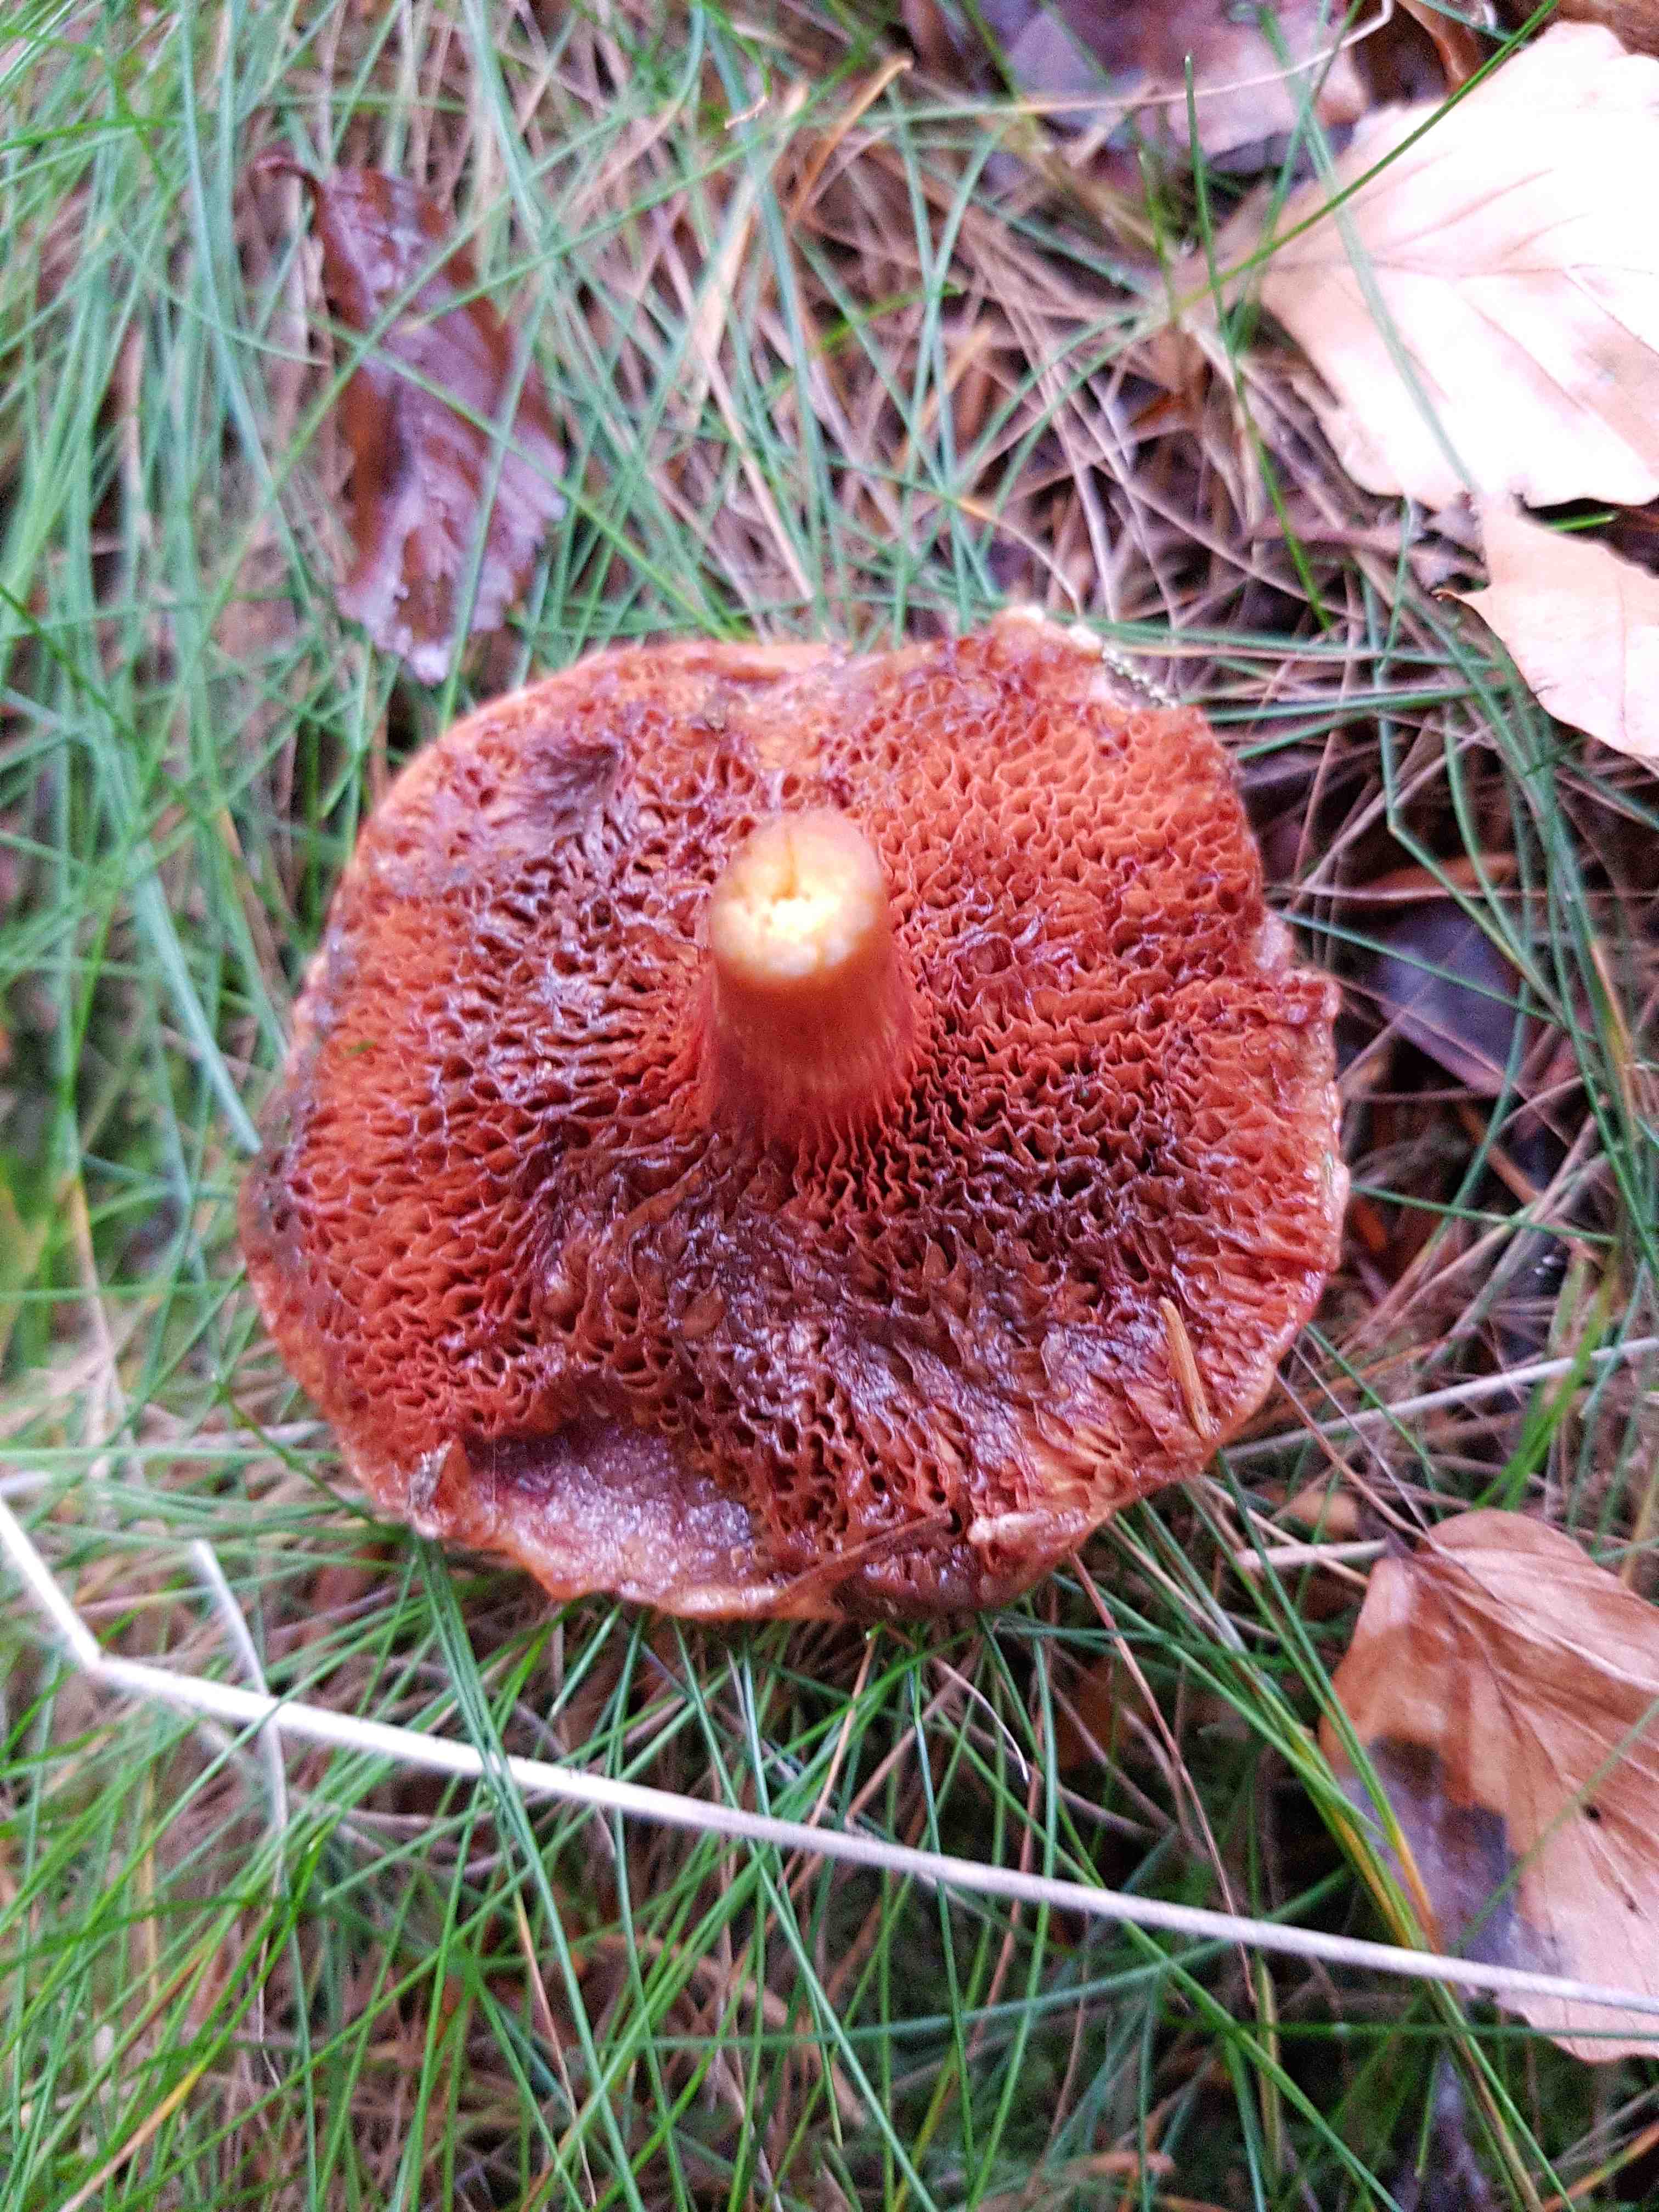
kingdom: Fungi
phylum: Basidiomycota
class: Agaricomycetes
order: Boletales
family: Boletaceae
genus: Chalciporus
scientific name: Chalciporus piperatus
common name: peberrørhat
